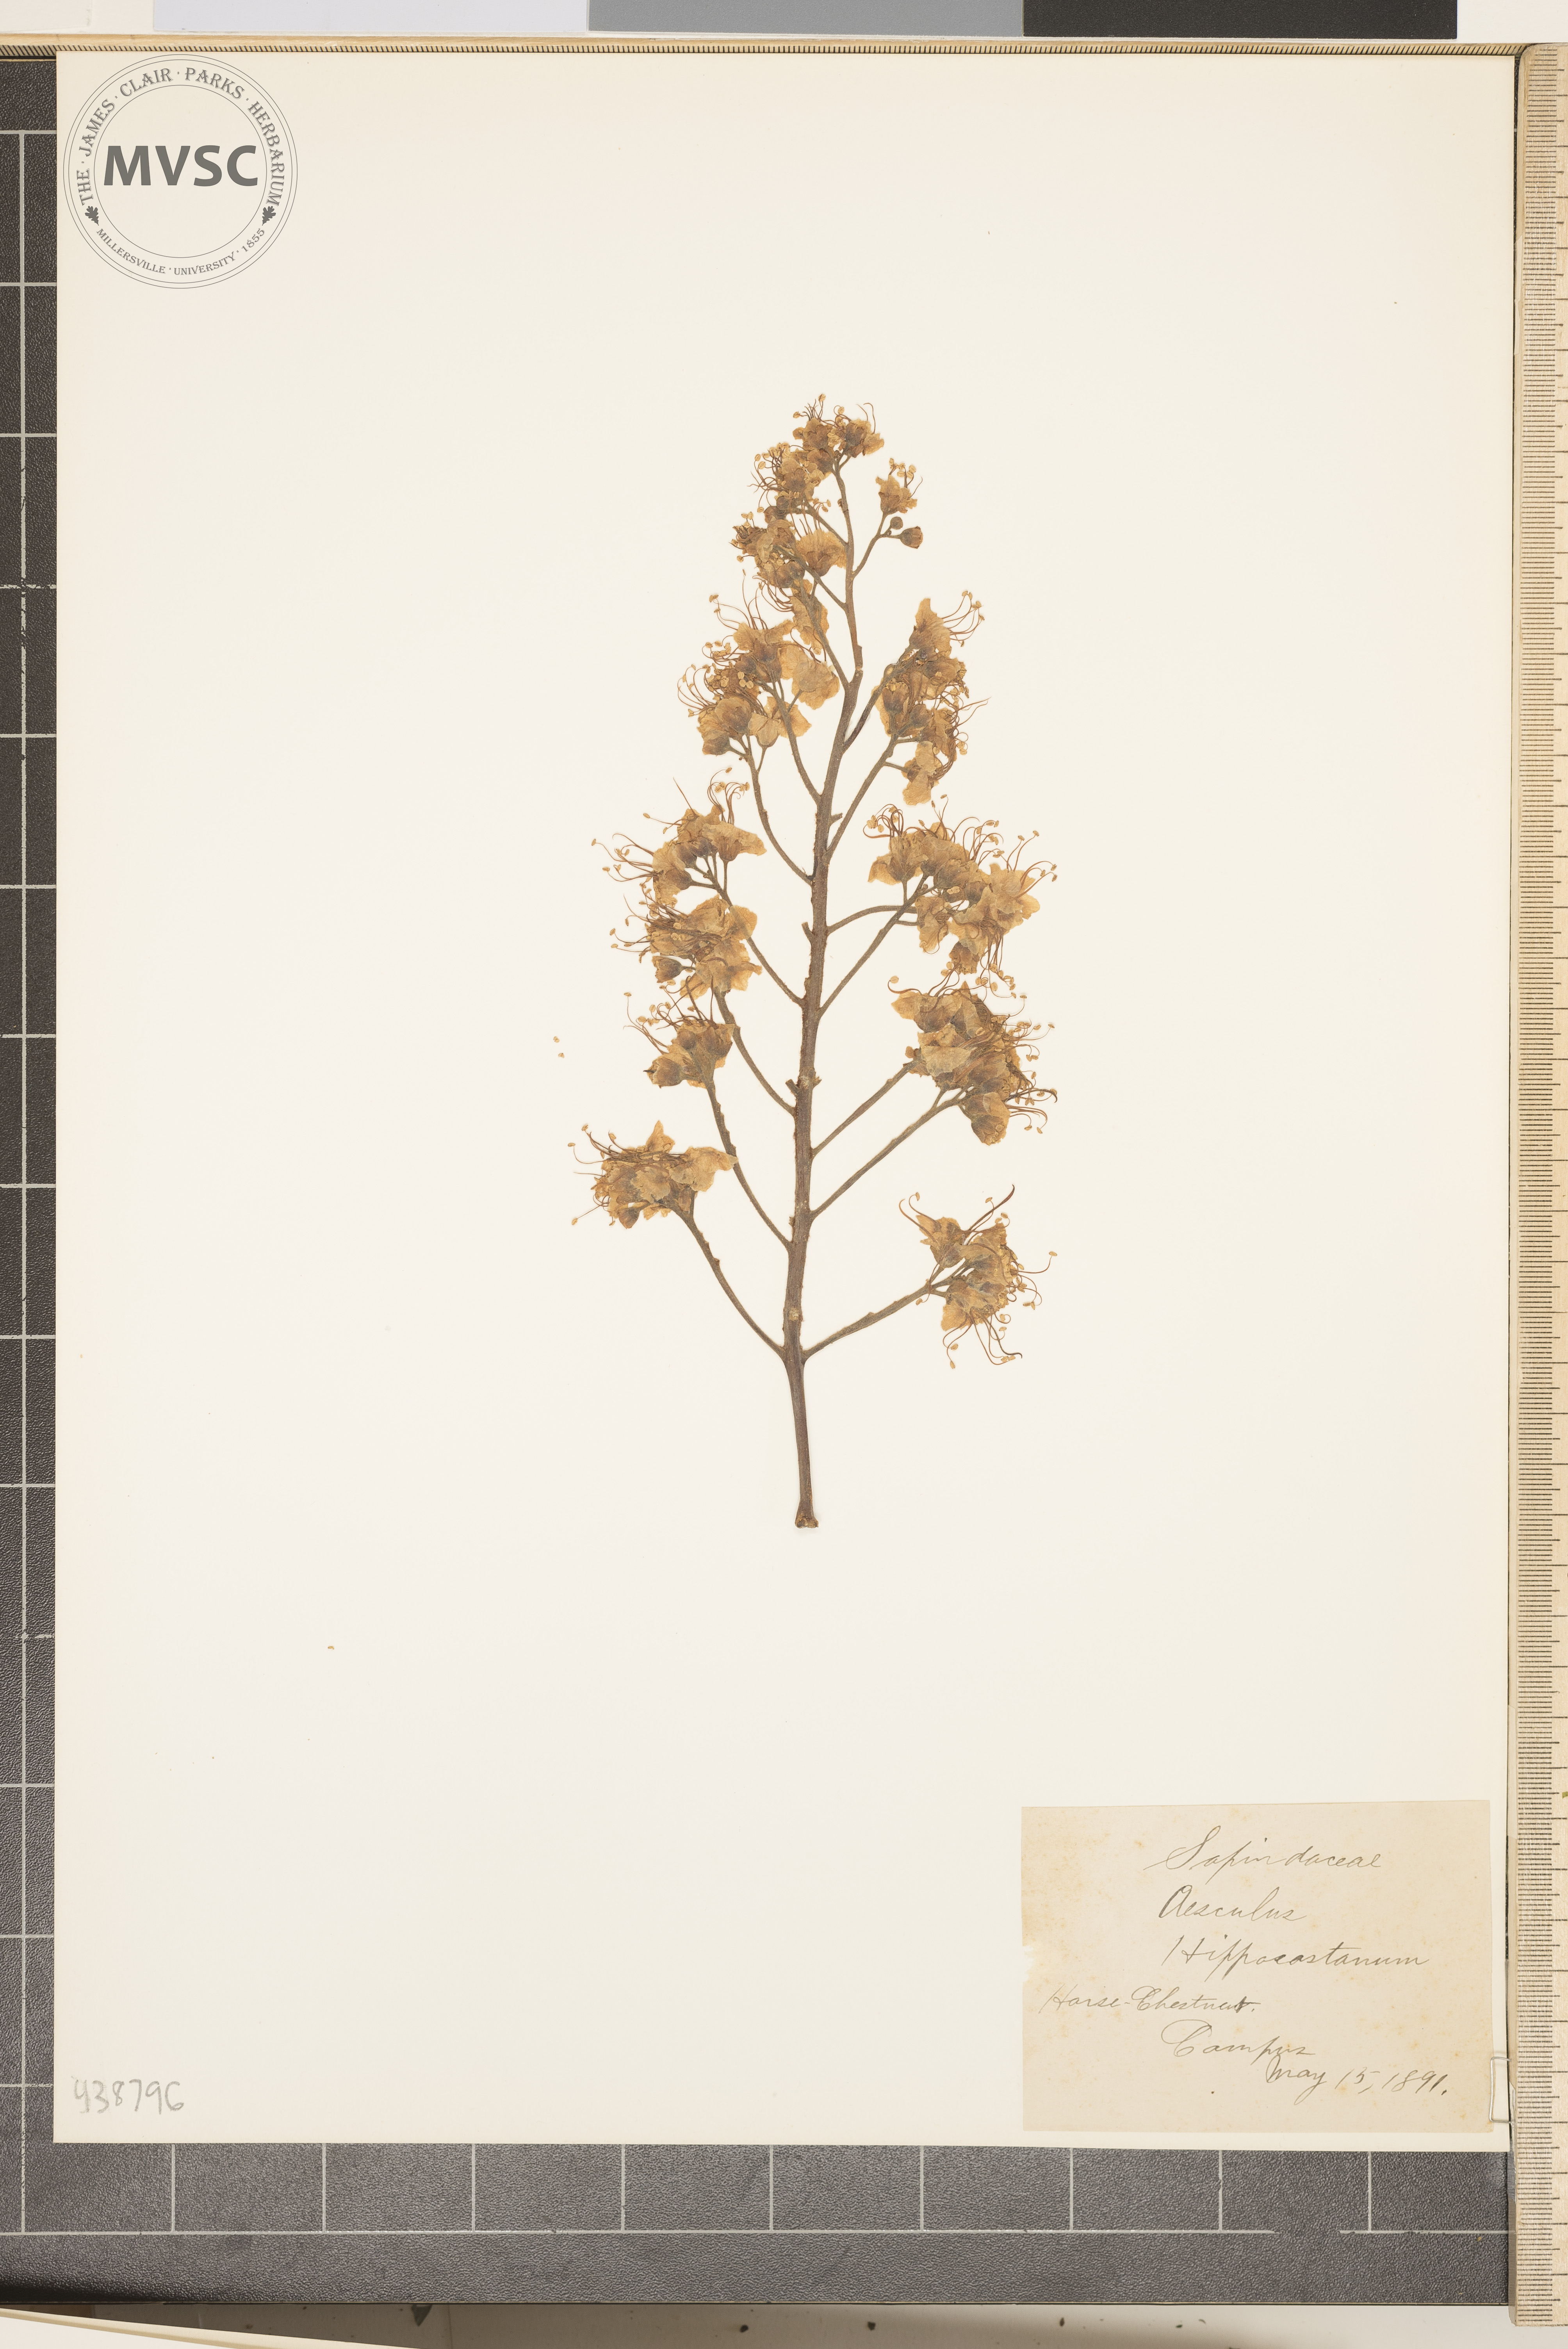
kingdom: Plantae
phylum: Tracheophyta
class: Magnoliopsida
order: Sapindales
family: Sapindaceae
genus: Aesculus
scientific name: Aesculus hippocastanum
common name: Horse chestnut
